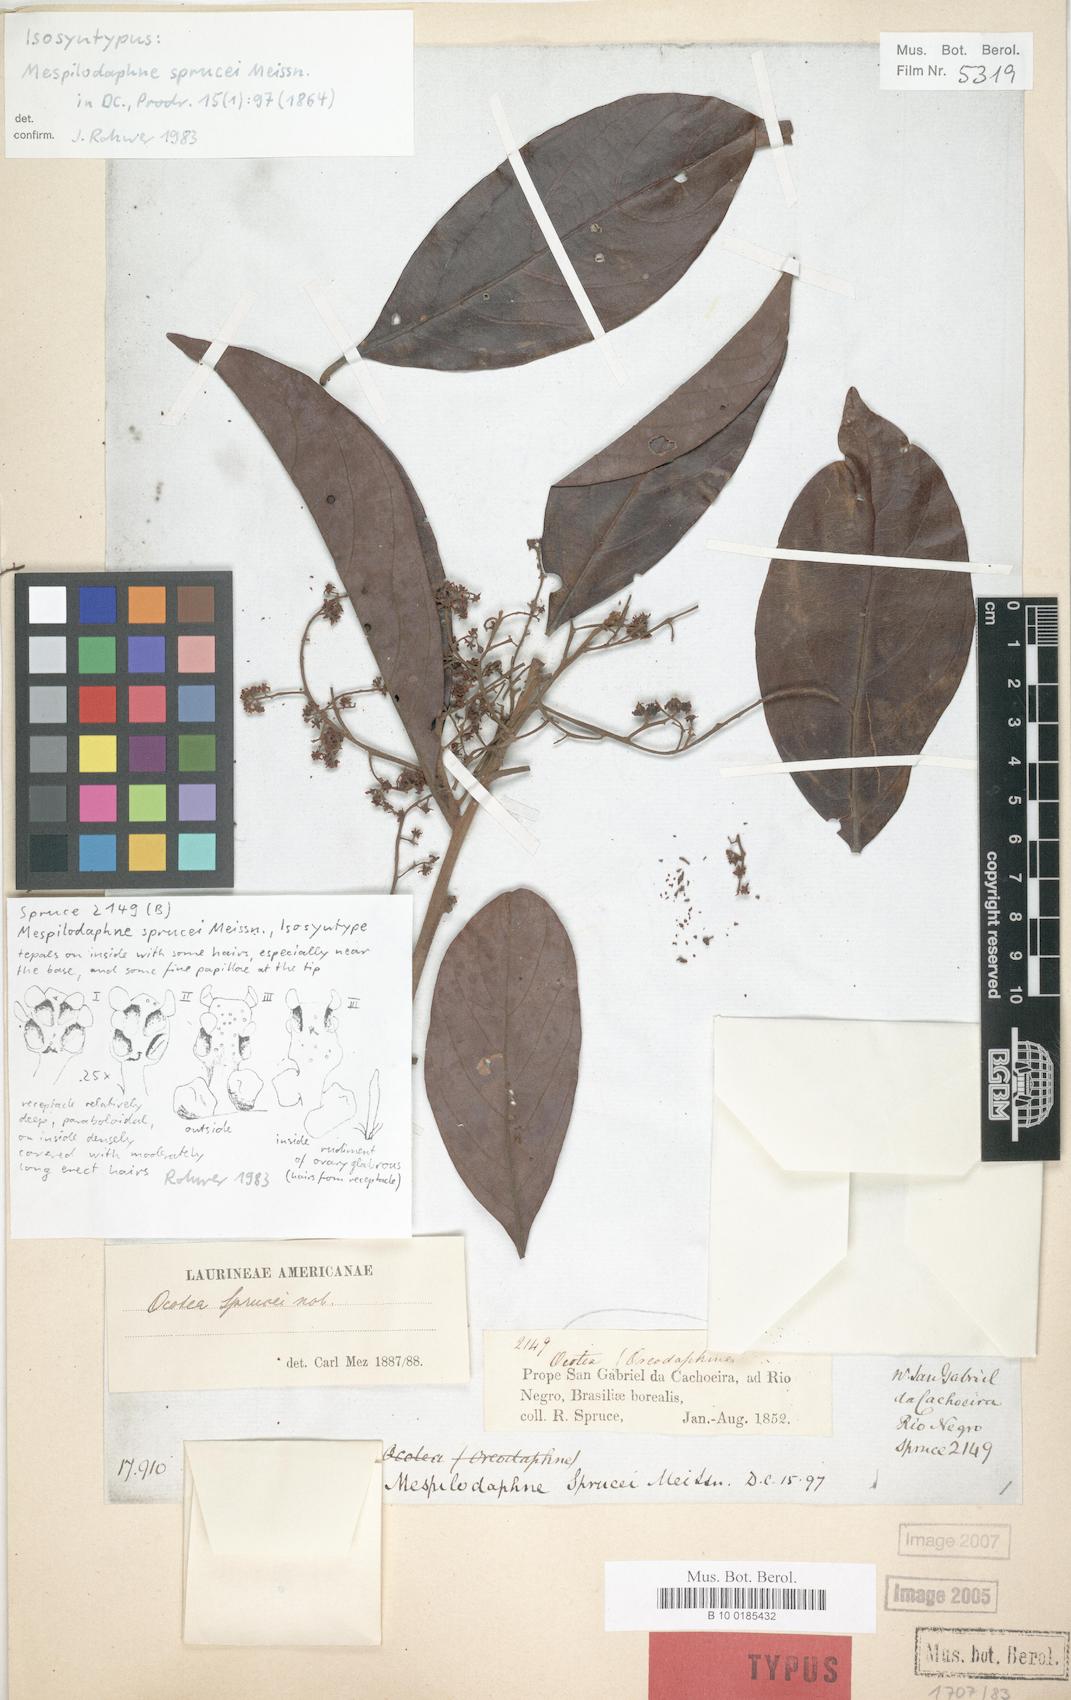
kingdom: Plantae
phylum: Tracheophyta
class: Magnoliopsida
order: Laurales
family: Lauraceae
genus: Mespilodaphne
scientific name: Mespilodaphne sprucei
